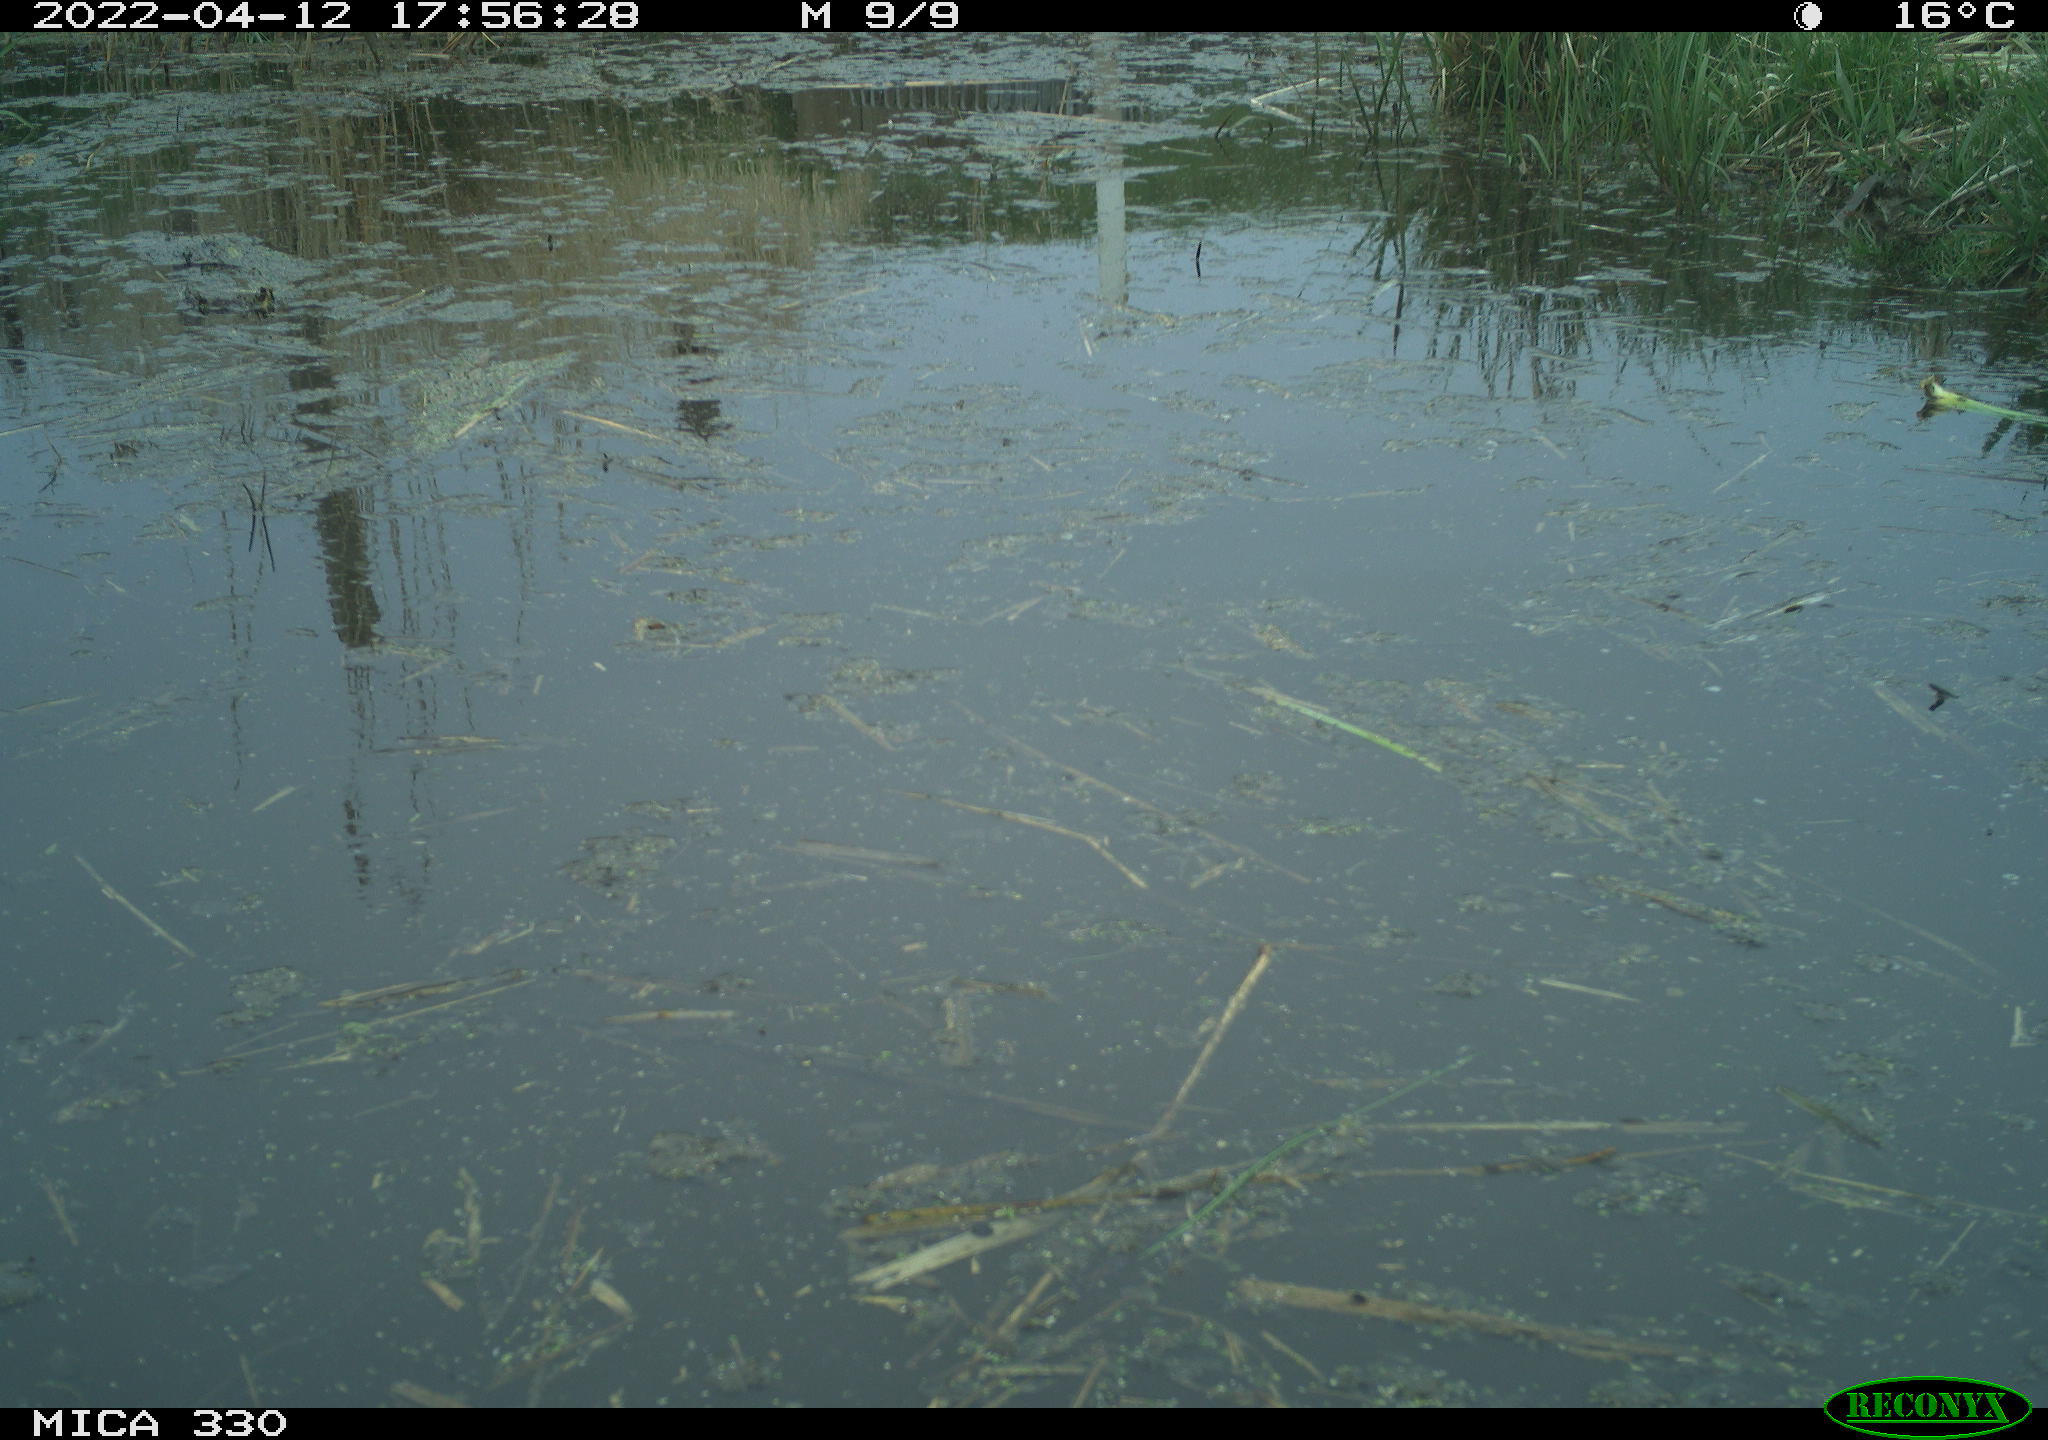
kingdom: Animalia
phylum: Chordata
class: Aves
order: Anseriformes
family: Anatidae
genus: Anas
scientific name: Anas platyrhynchos
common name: Mallard
